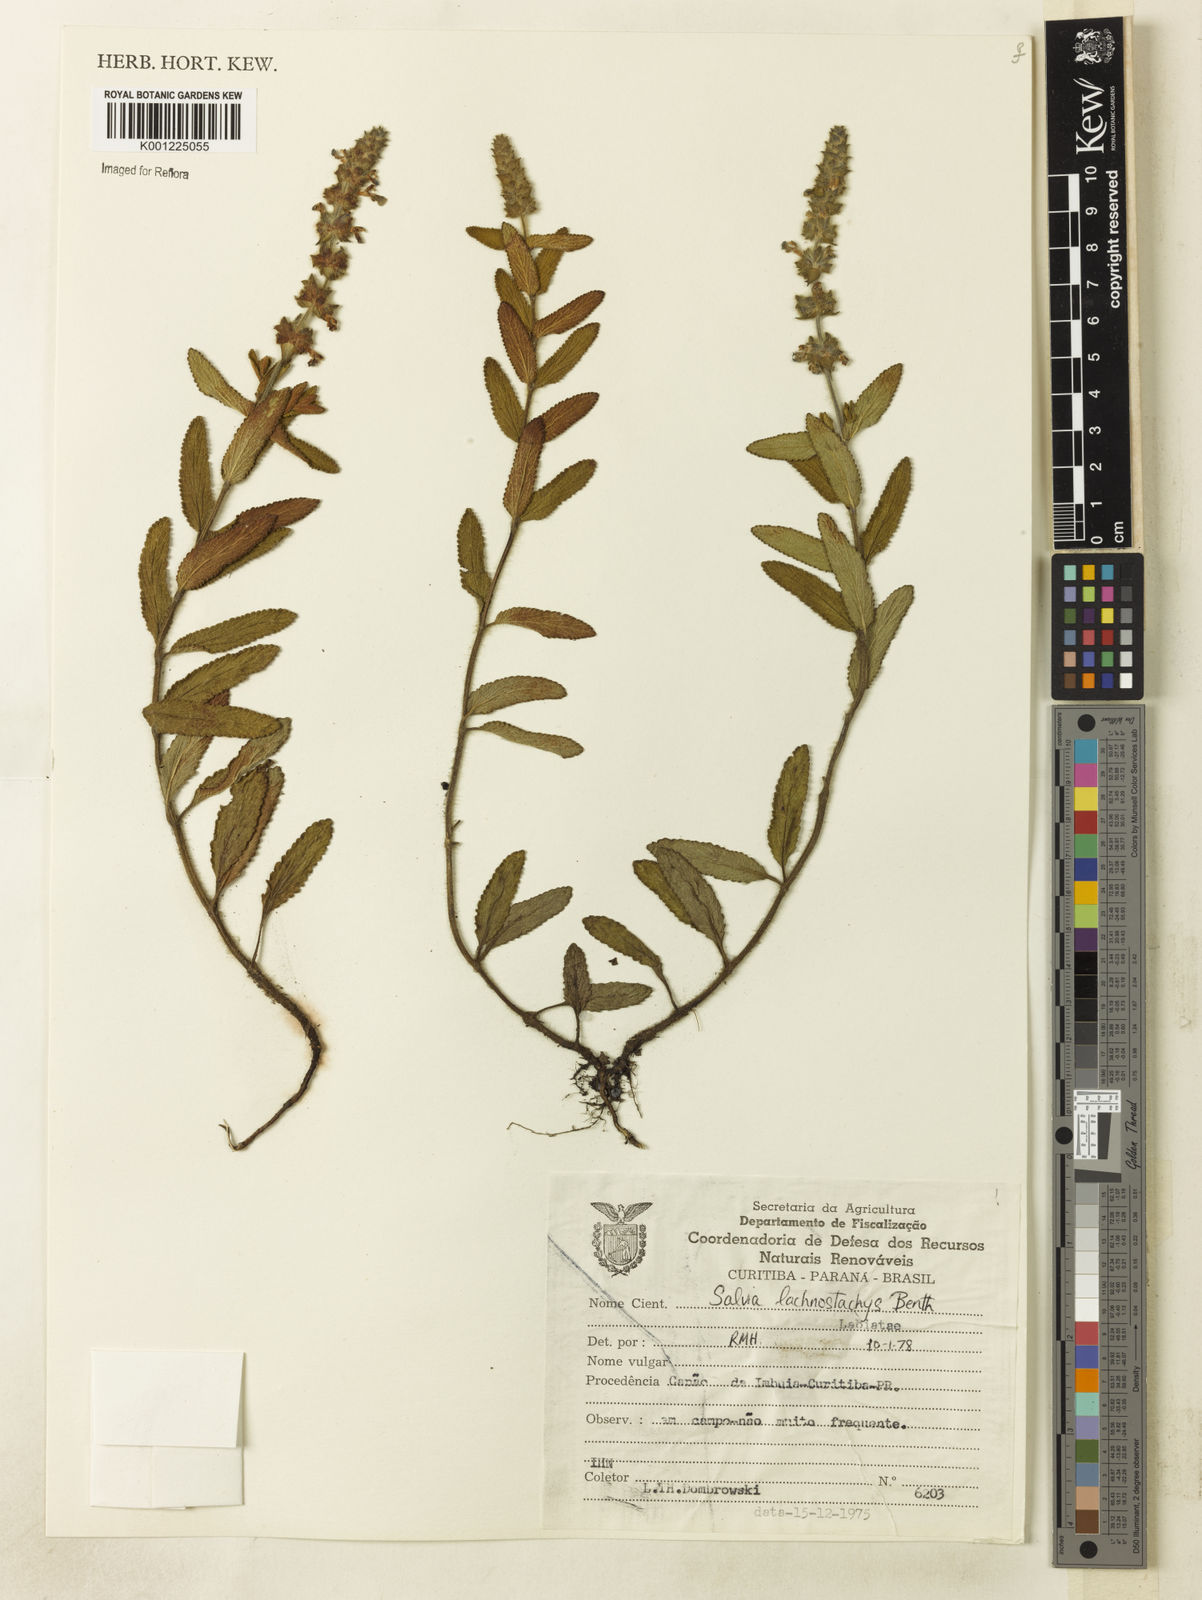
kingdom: Plantae
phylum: Tracheophyta
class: Magnoliopsida
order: Lamiales
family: Lamiaceae
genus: Salvia
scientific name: Salvia lachnostachys
